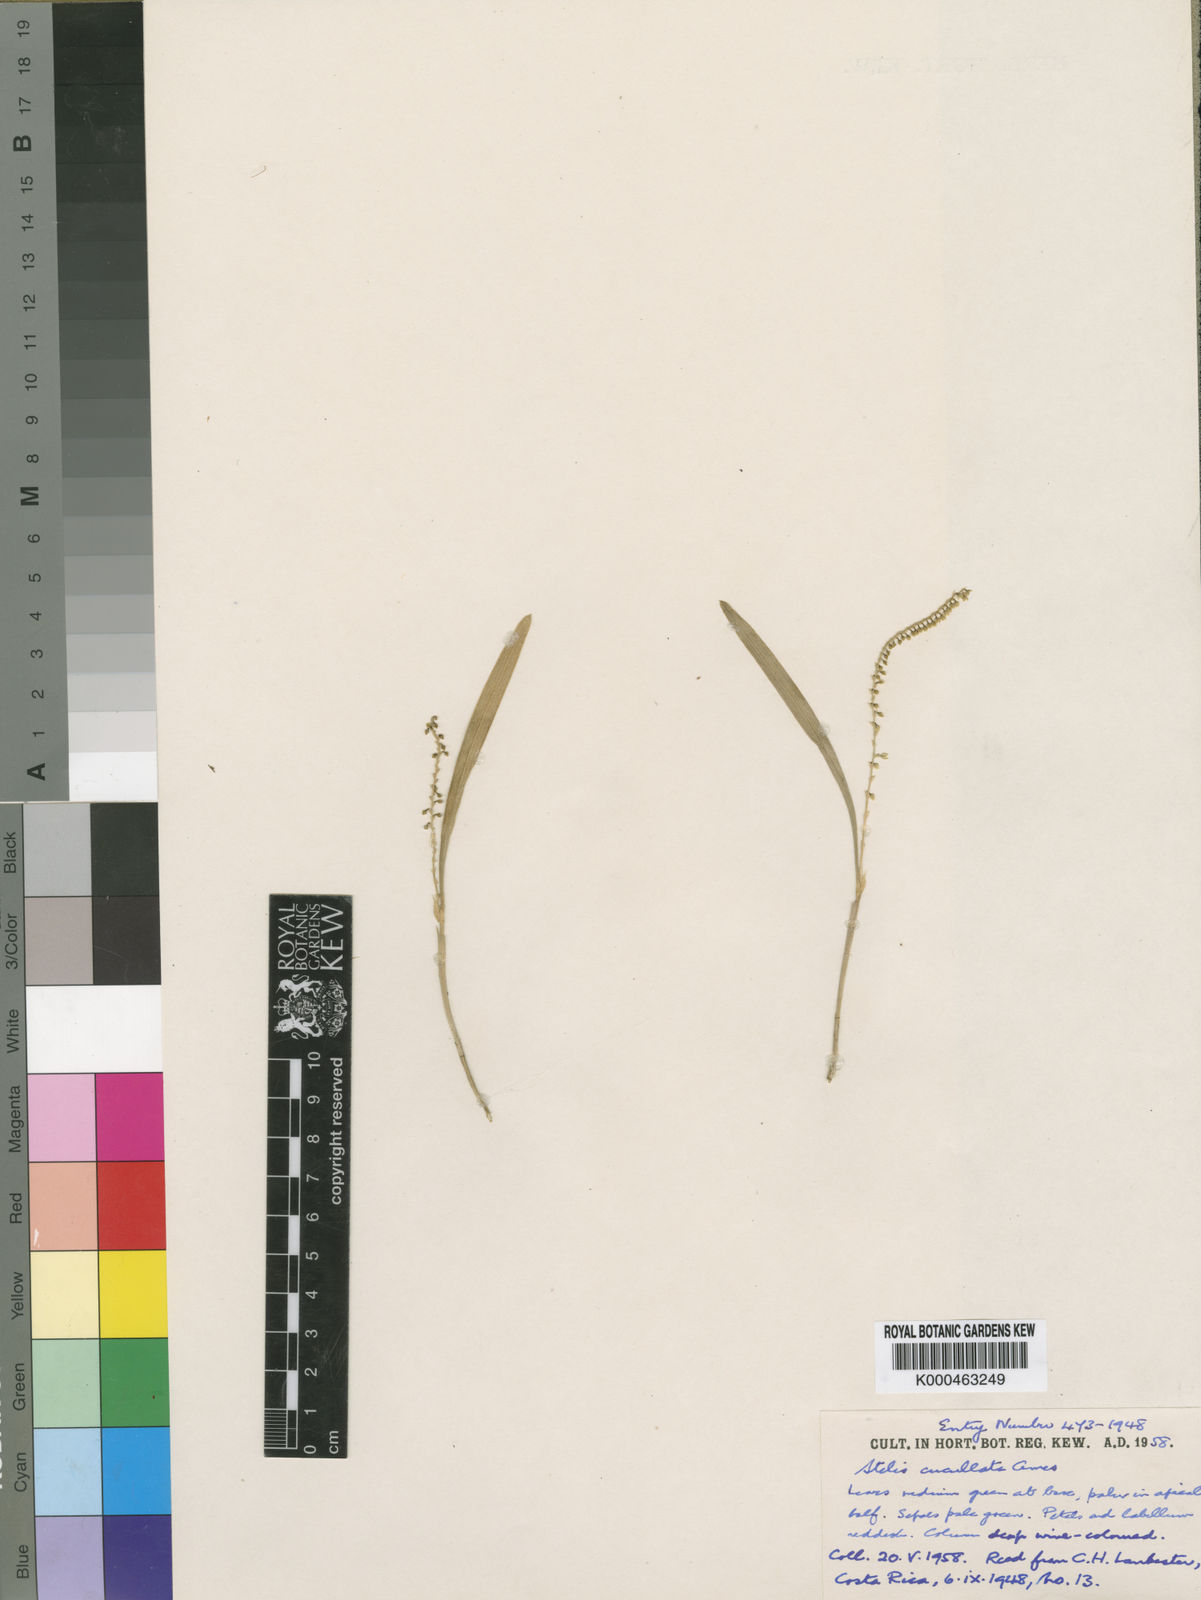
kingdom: Plantae
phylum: Tracheophyta
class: Liliopsida
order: Asparagales
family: Orchidaceae
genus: Stelis
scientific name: Stelis cucullata
